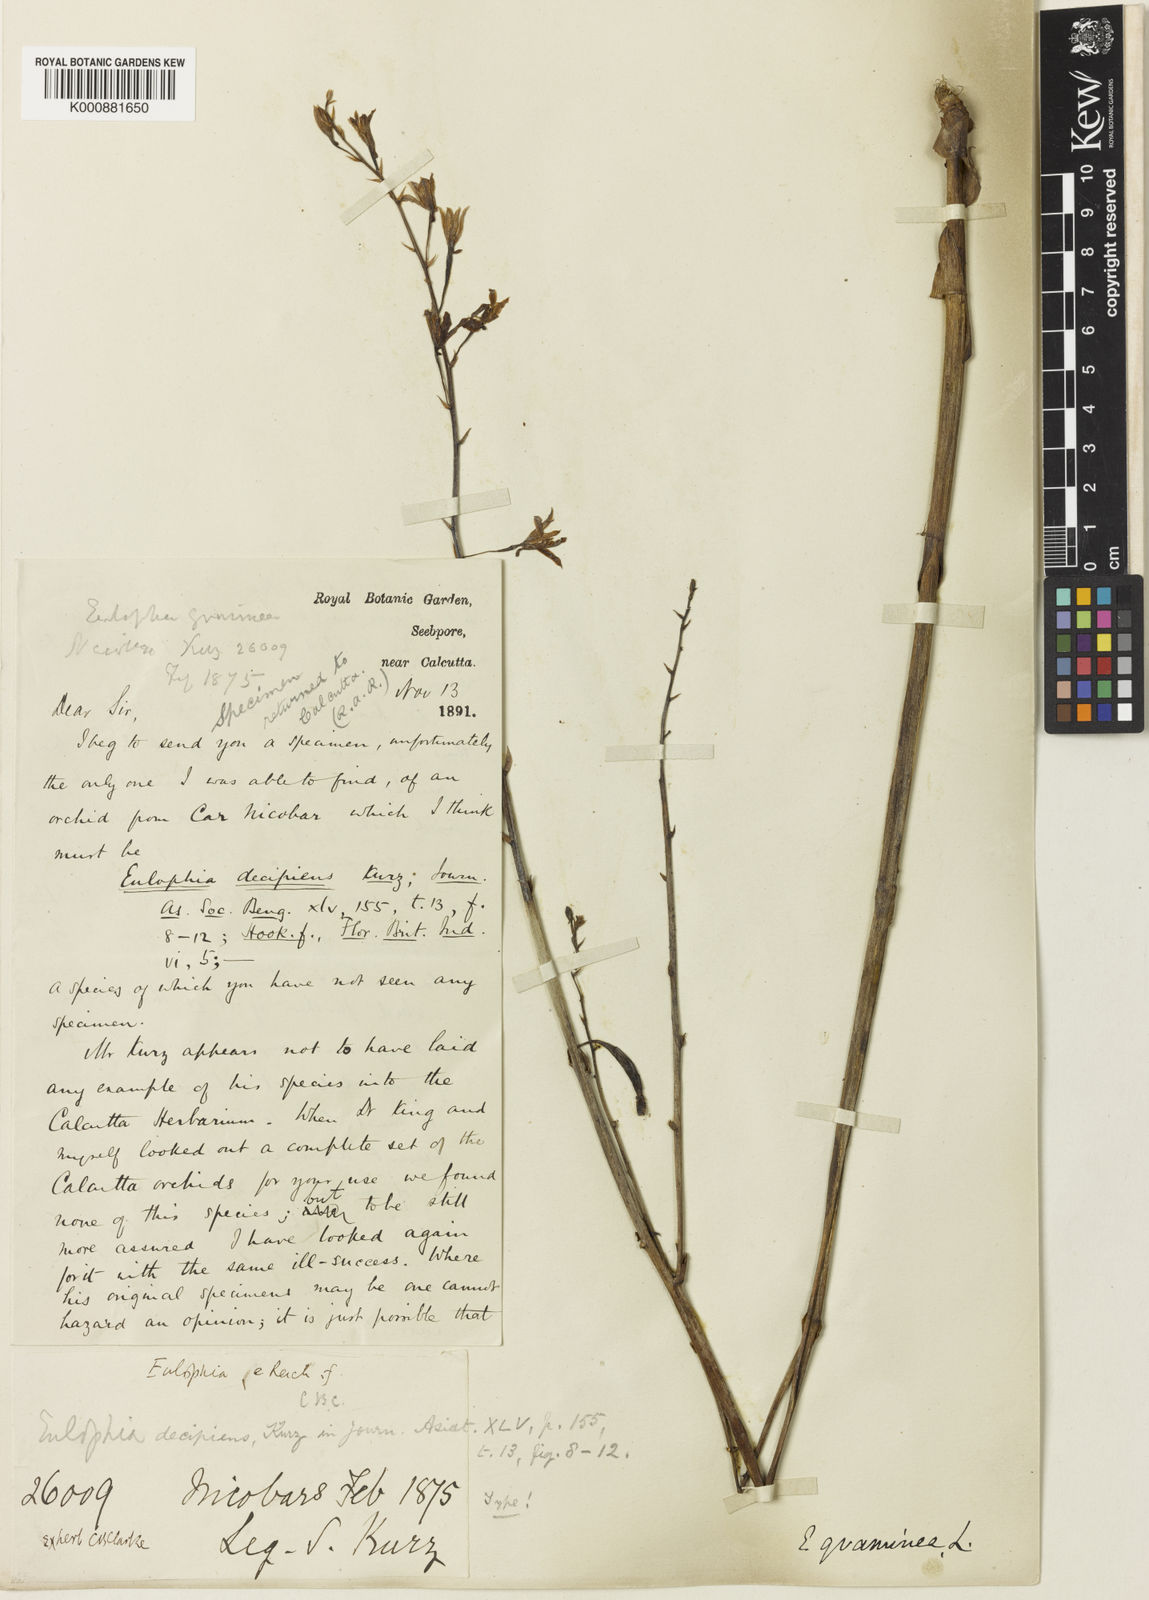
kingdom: Plantae
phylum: Tracheophyta
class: Liliopsida
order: Asparagales
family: Orchidaceae
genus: Eulophia
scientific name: Eulophia graminea
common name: Orchid
